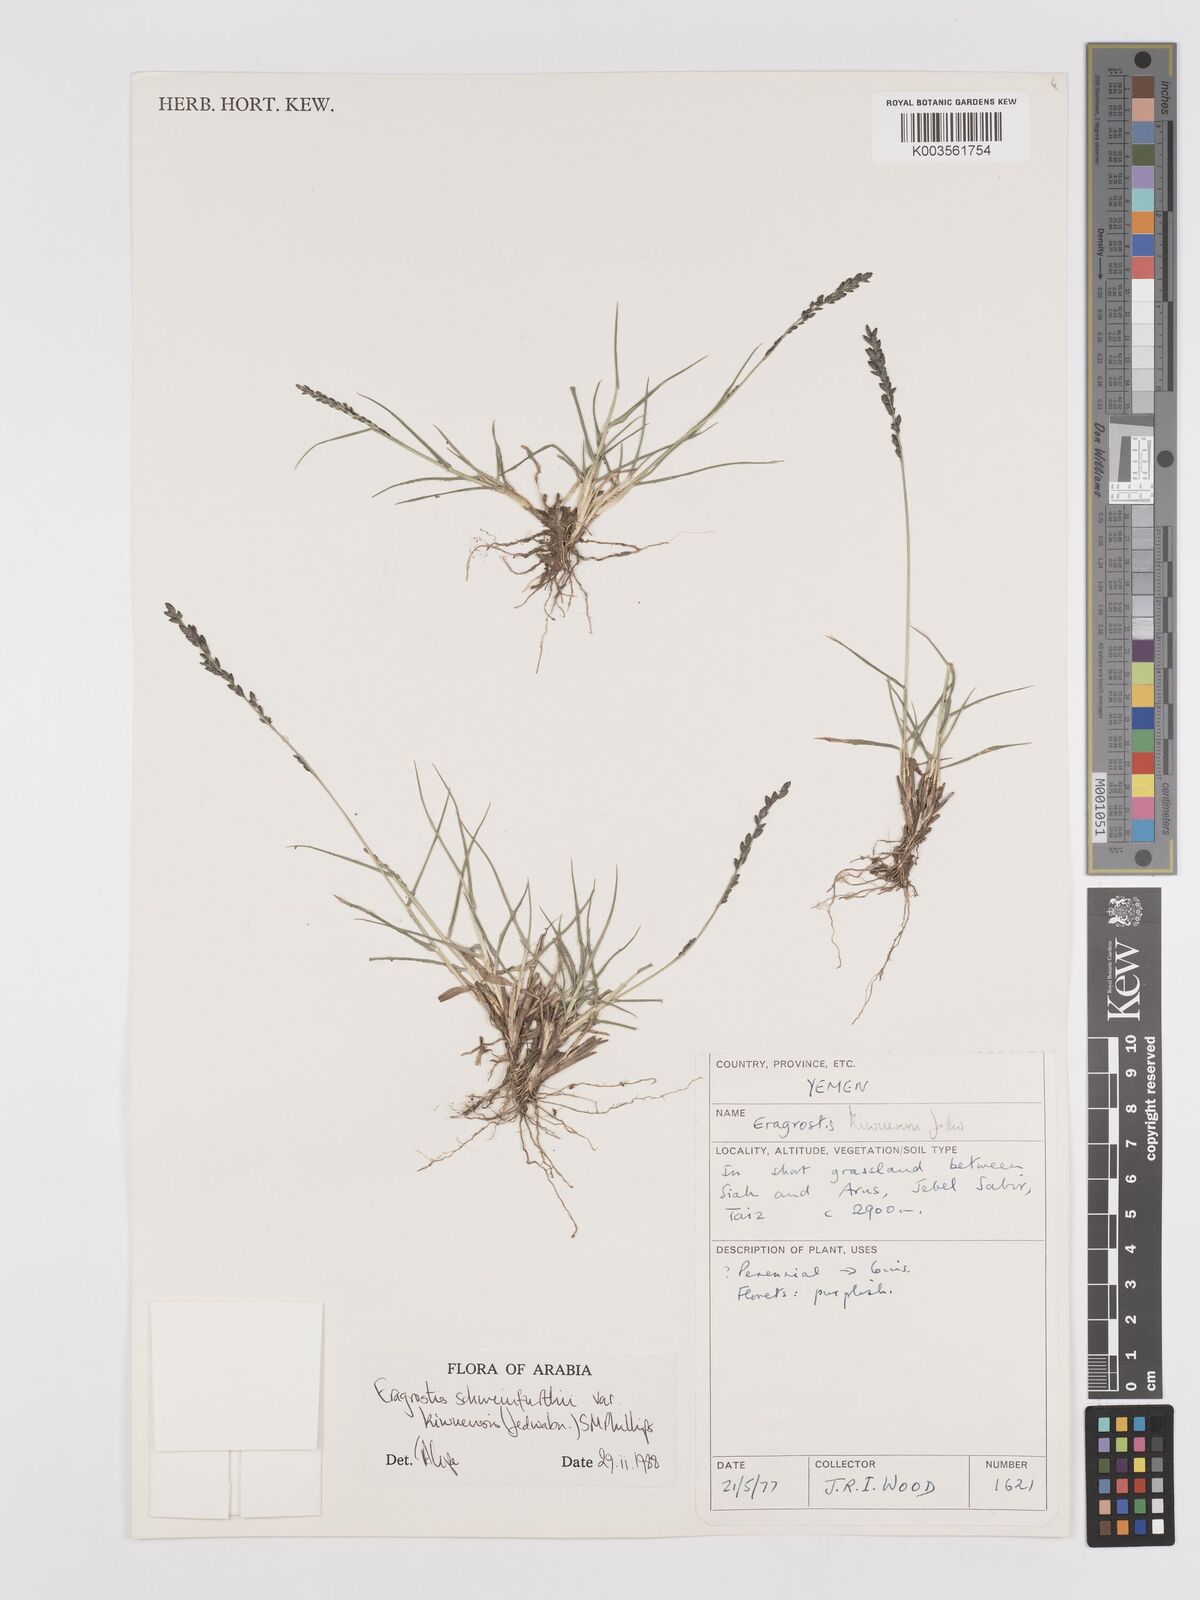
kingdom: Plantae
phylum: Tracheophyta
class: Liliopsida
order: Poales
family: Poaceae
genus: Eragrostis
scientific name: Eragrostis schweinfurthii
